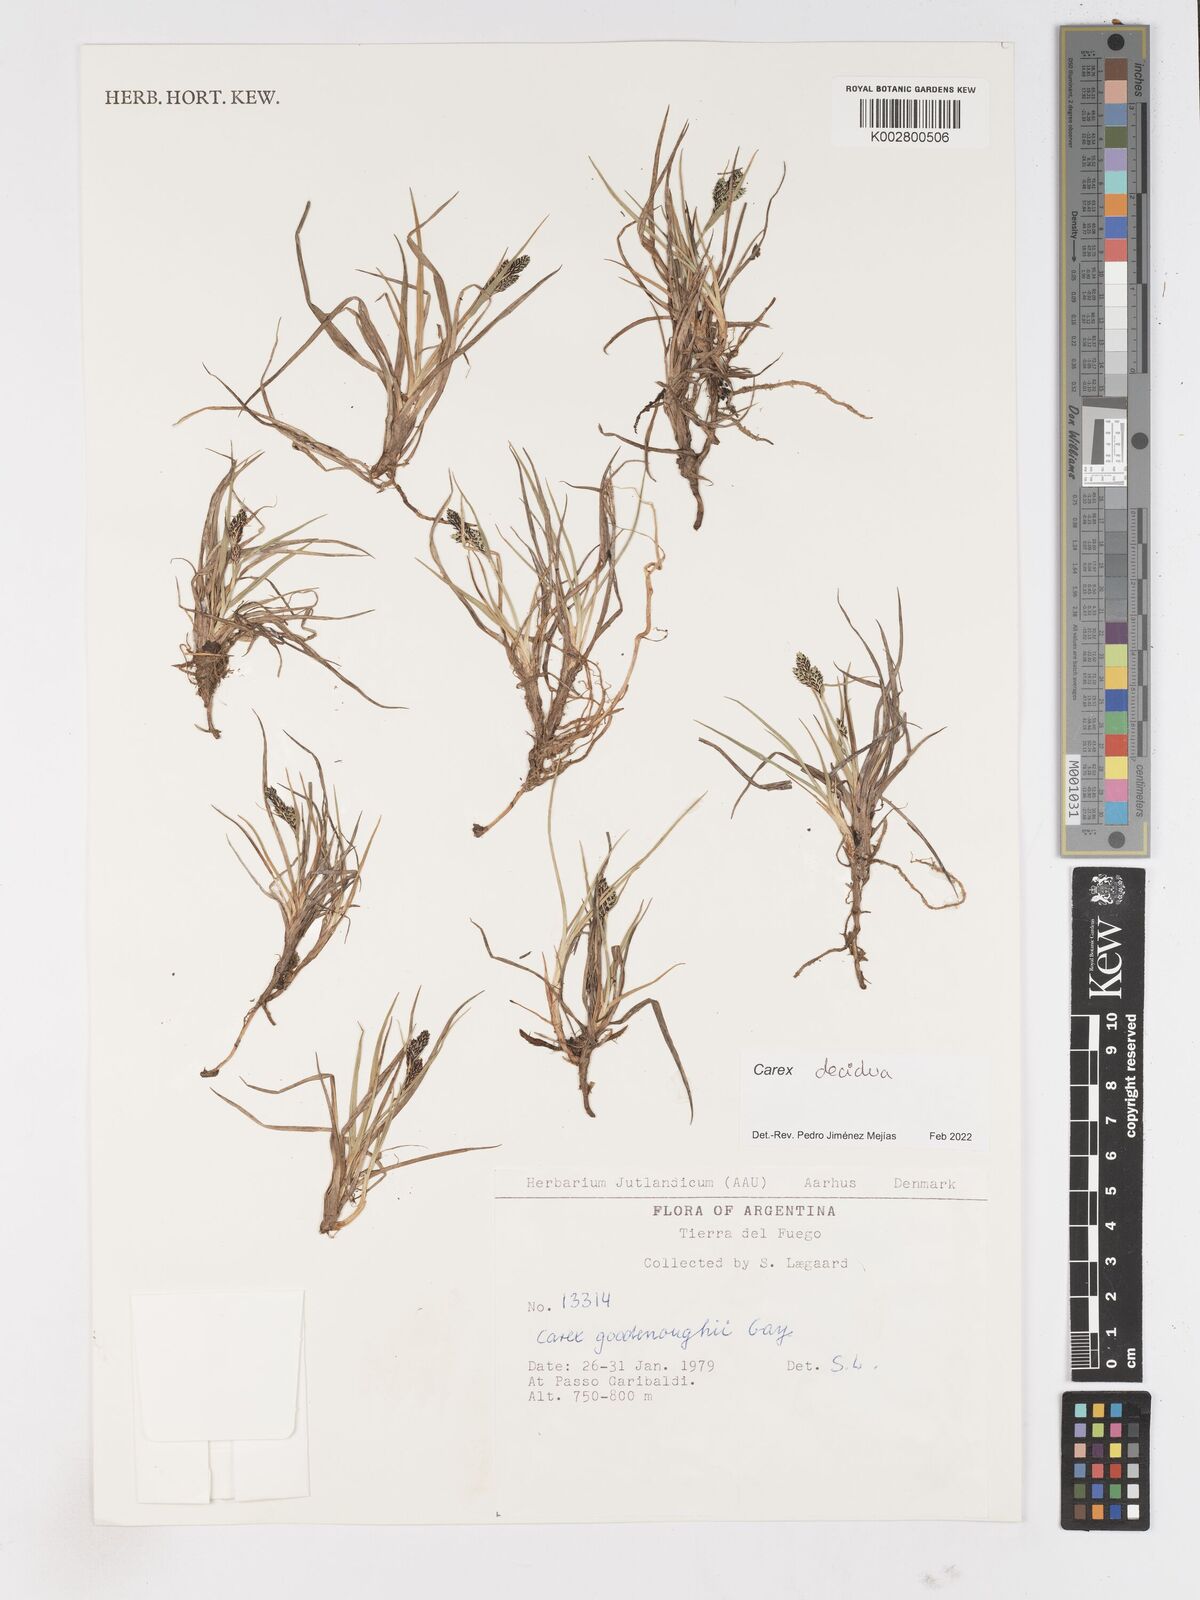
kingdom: Plantae
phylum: Tracheophyta
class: Liliopsida
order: Poales
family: Cyperaceae
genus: Carex
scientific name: Carex decidua
